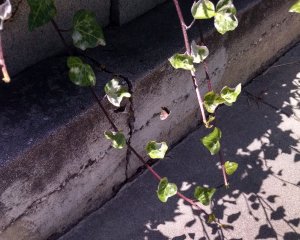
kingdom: Animalia
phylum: Arthropoda
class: Insecta
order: Lepidoptera
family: Hesperiidae
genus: Erynnis
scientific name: Erynnis
